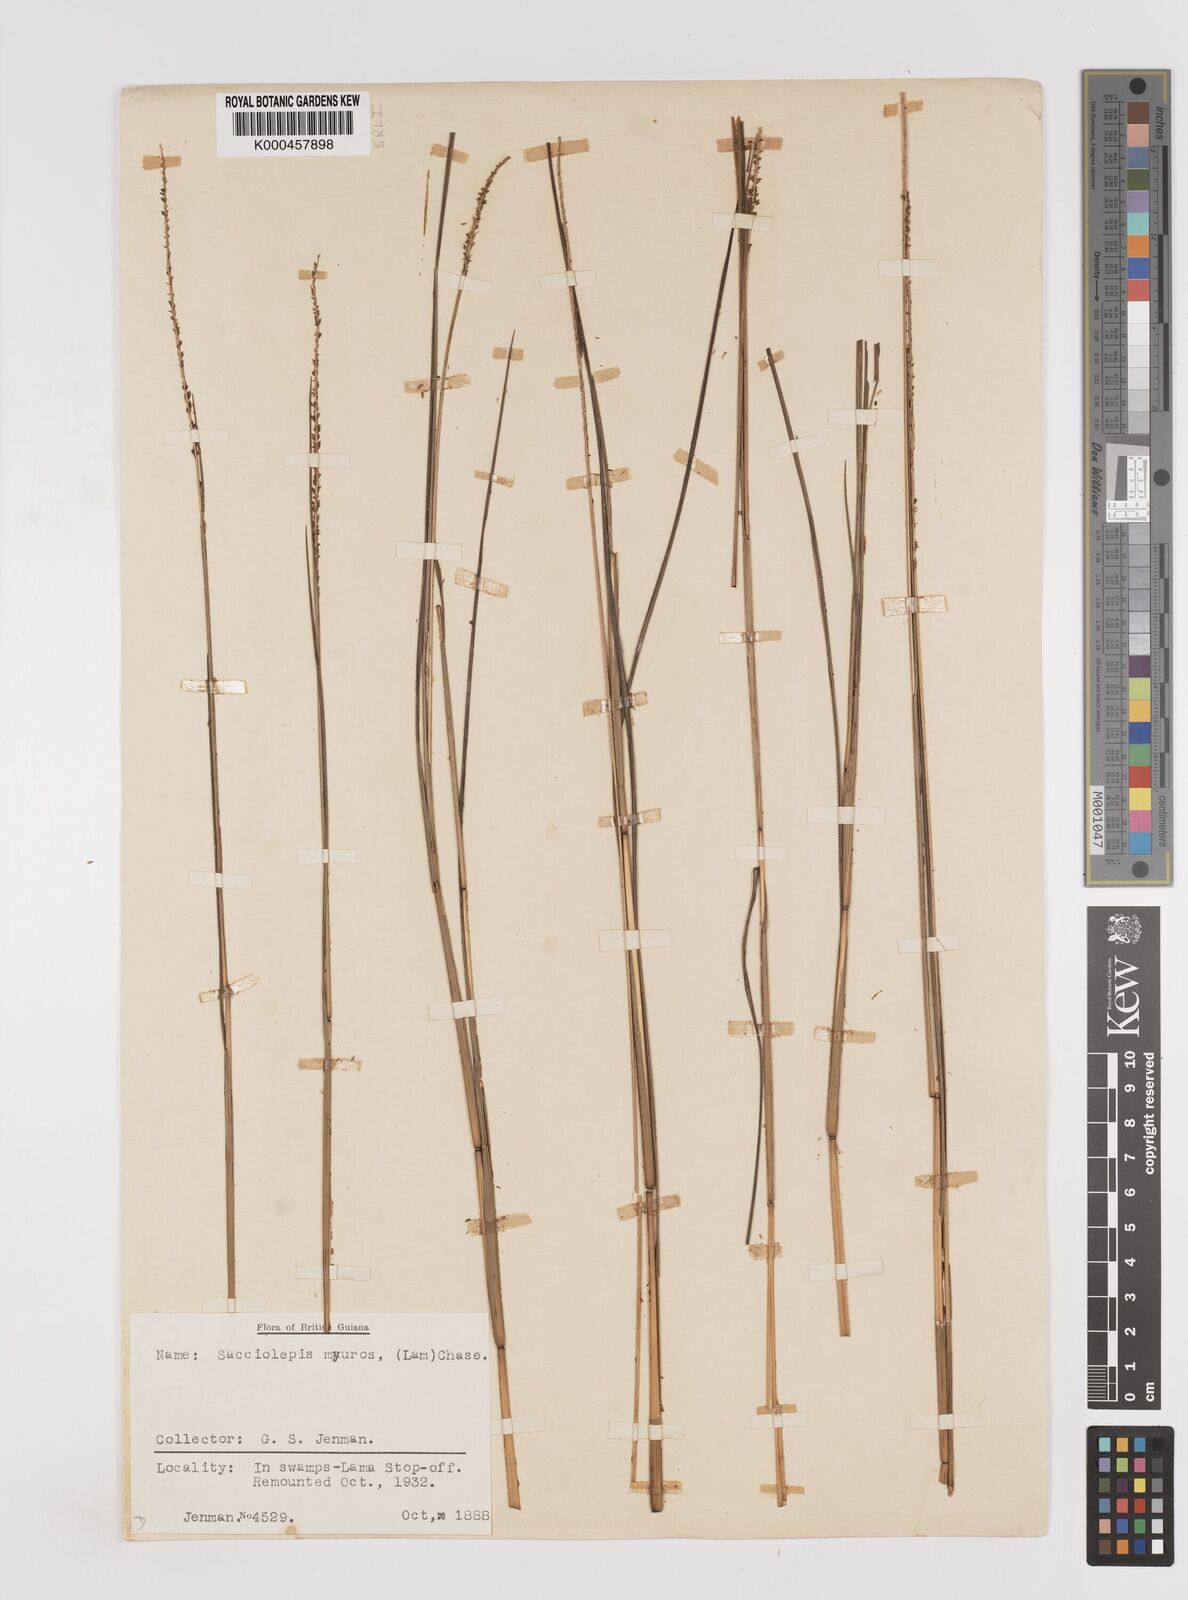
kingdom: Plantae
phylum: Tracheophyta
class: Liliopsida
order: Poales
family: Poaceae
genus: Sacciolepis
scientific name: Sacciolepis angustissima
